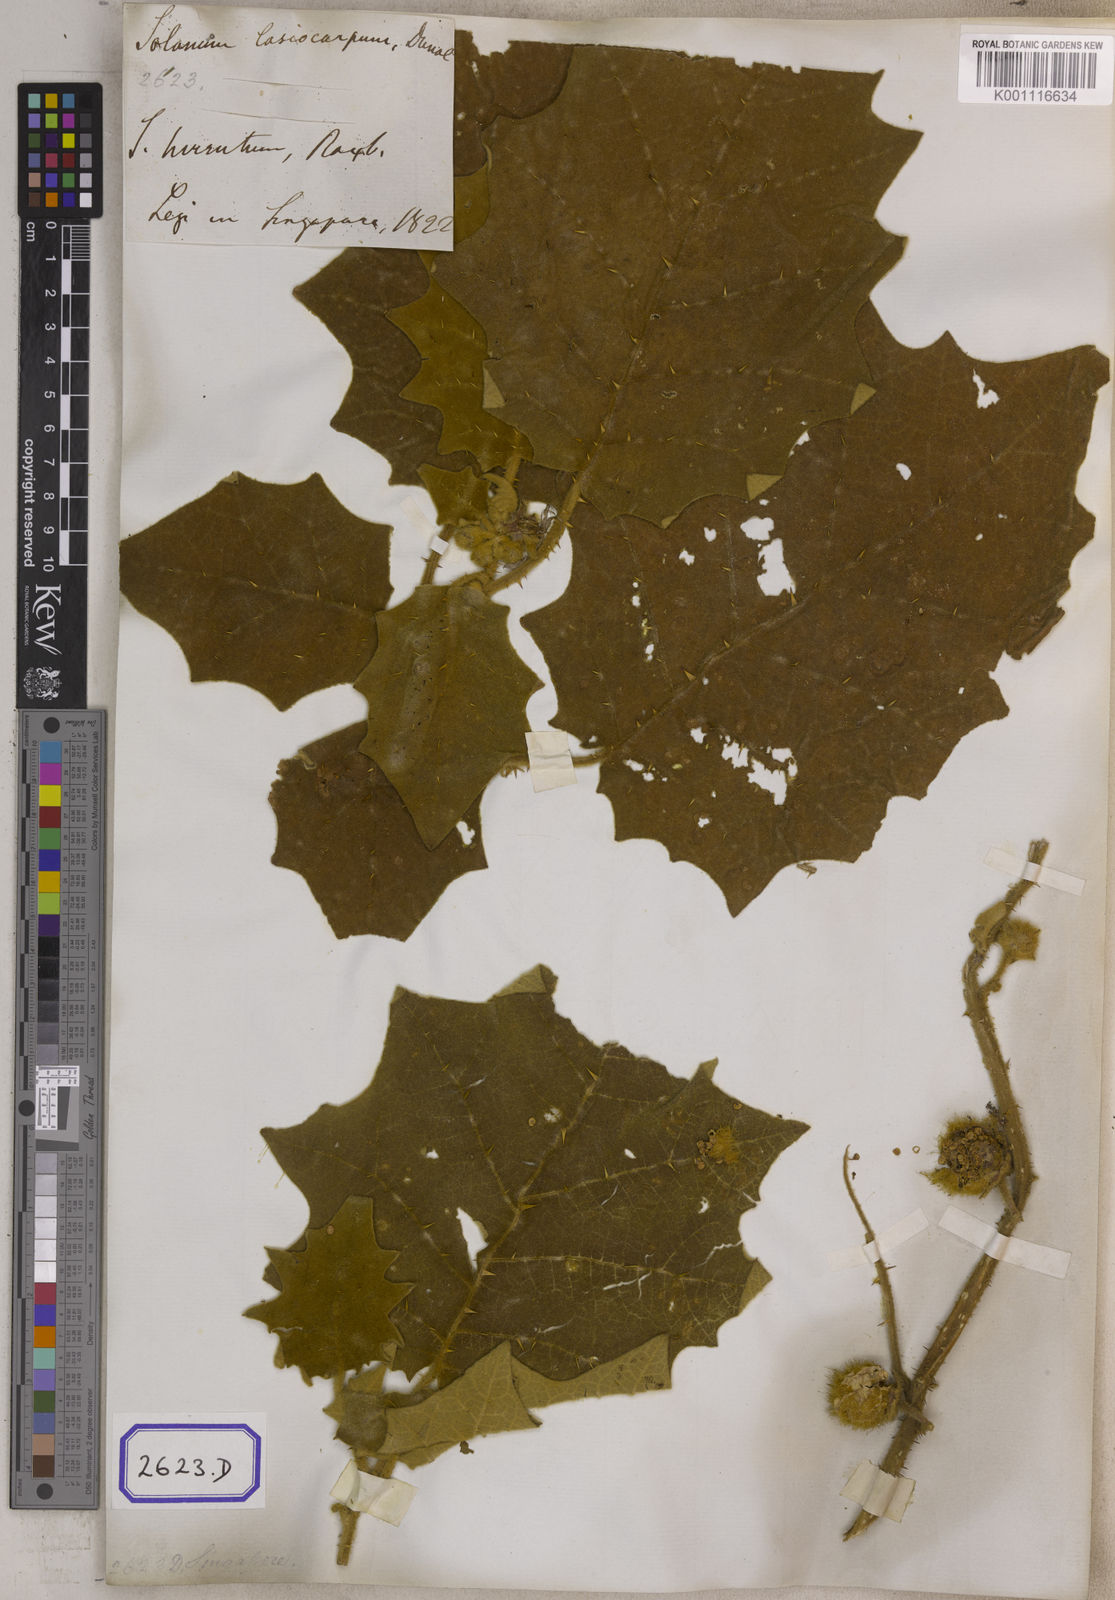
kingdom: Plantae
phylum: Tracheophyta
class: Magnoliopsida
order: Solanales
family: Solanaceae
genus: Solanum
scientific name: Solanum lasiocarpum
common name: Indian nightshade
